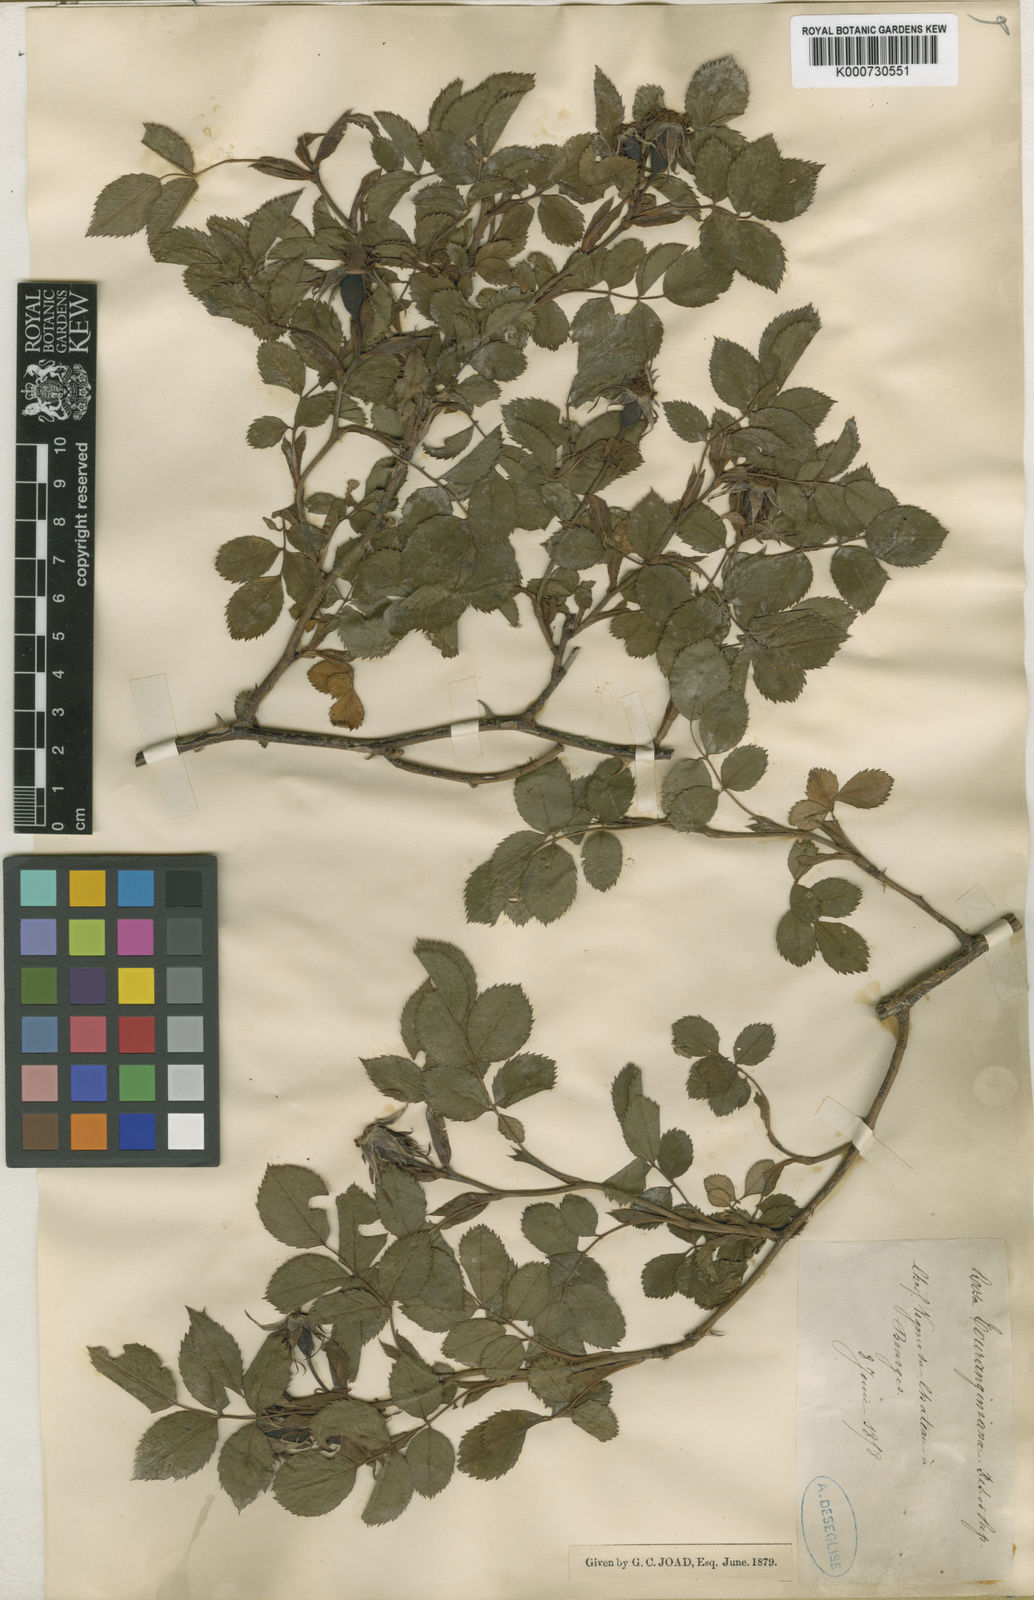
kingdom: Plantae
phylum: Tracheophyta
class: Magnoliopsida
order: Rosales
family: Rosaceae
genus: Rosa
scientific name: Rosa
